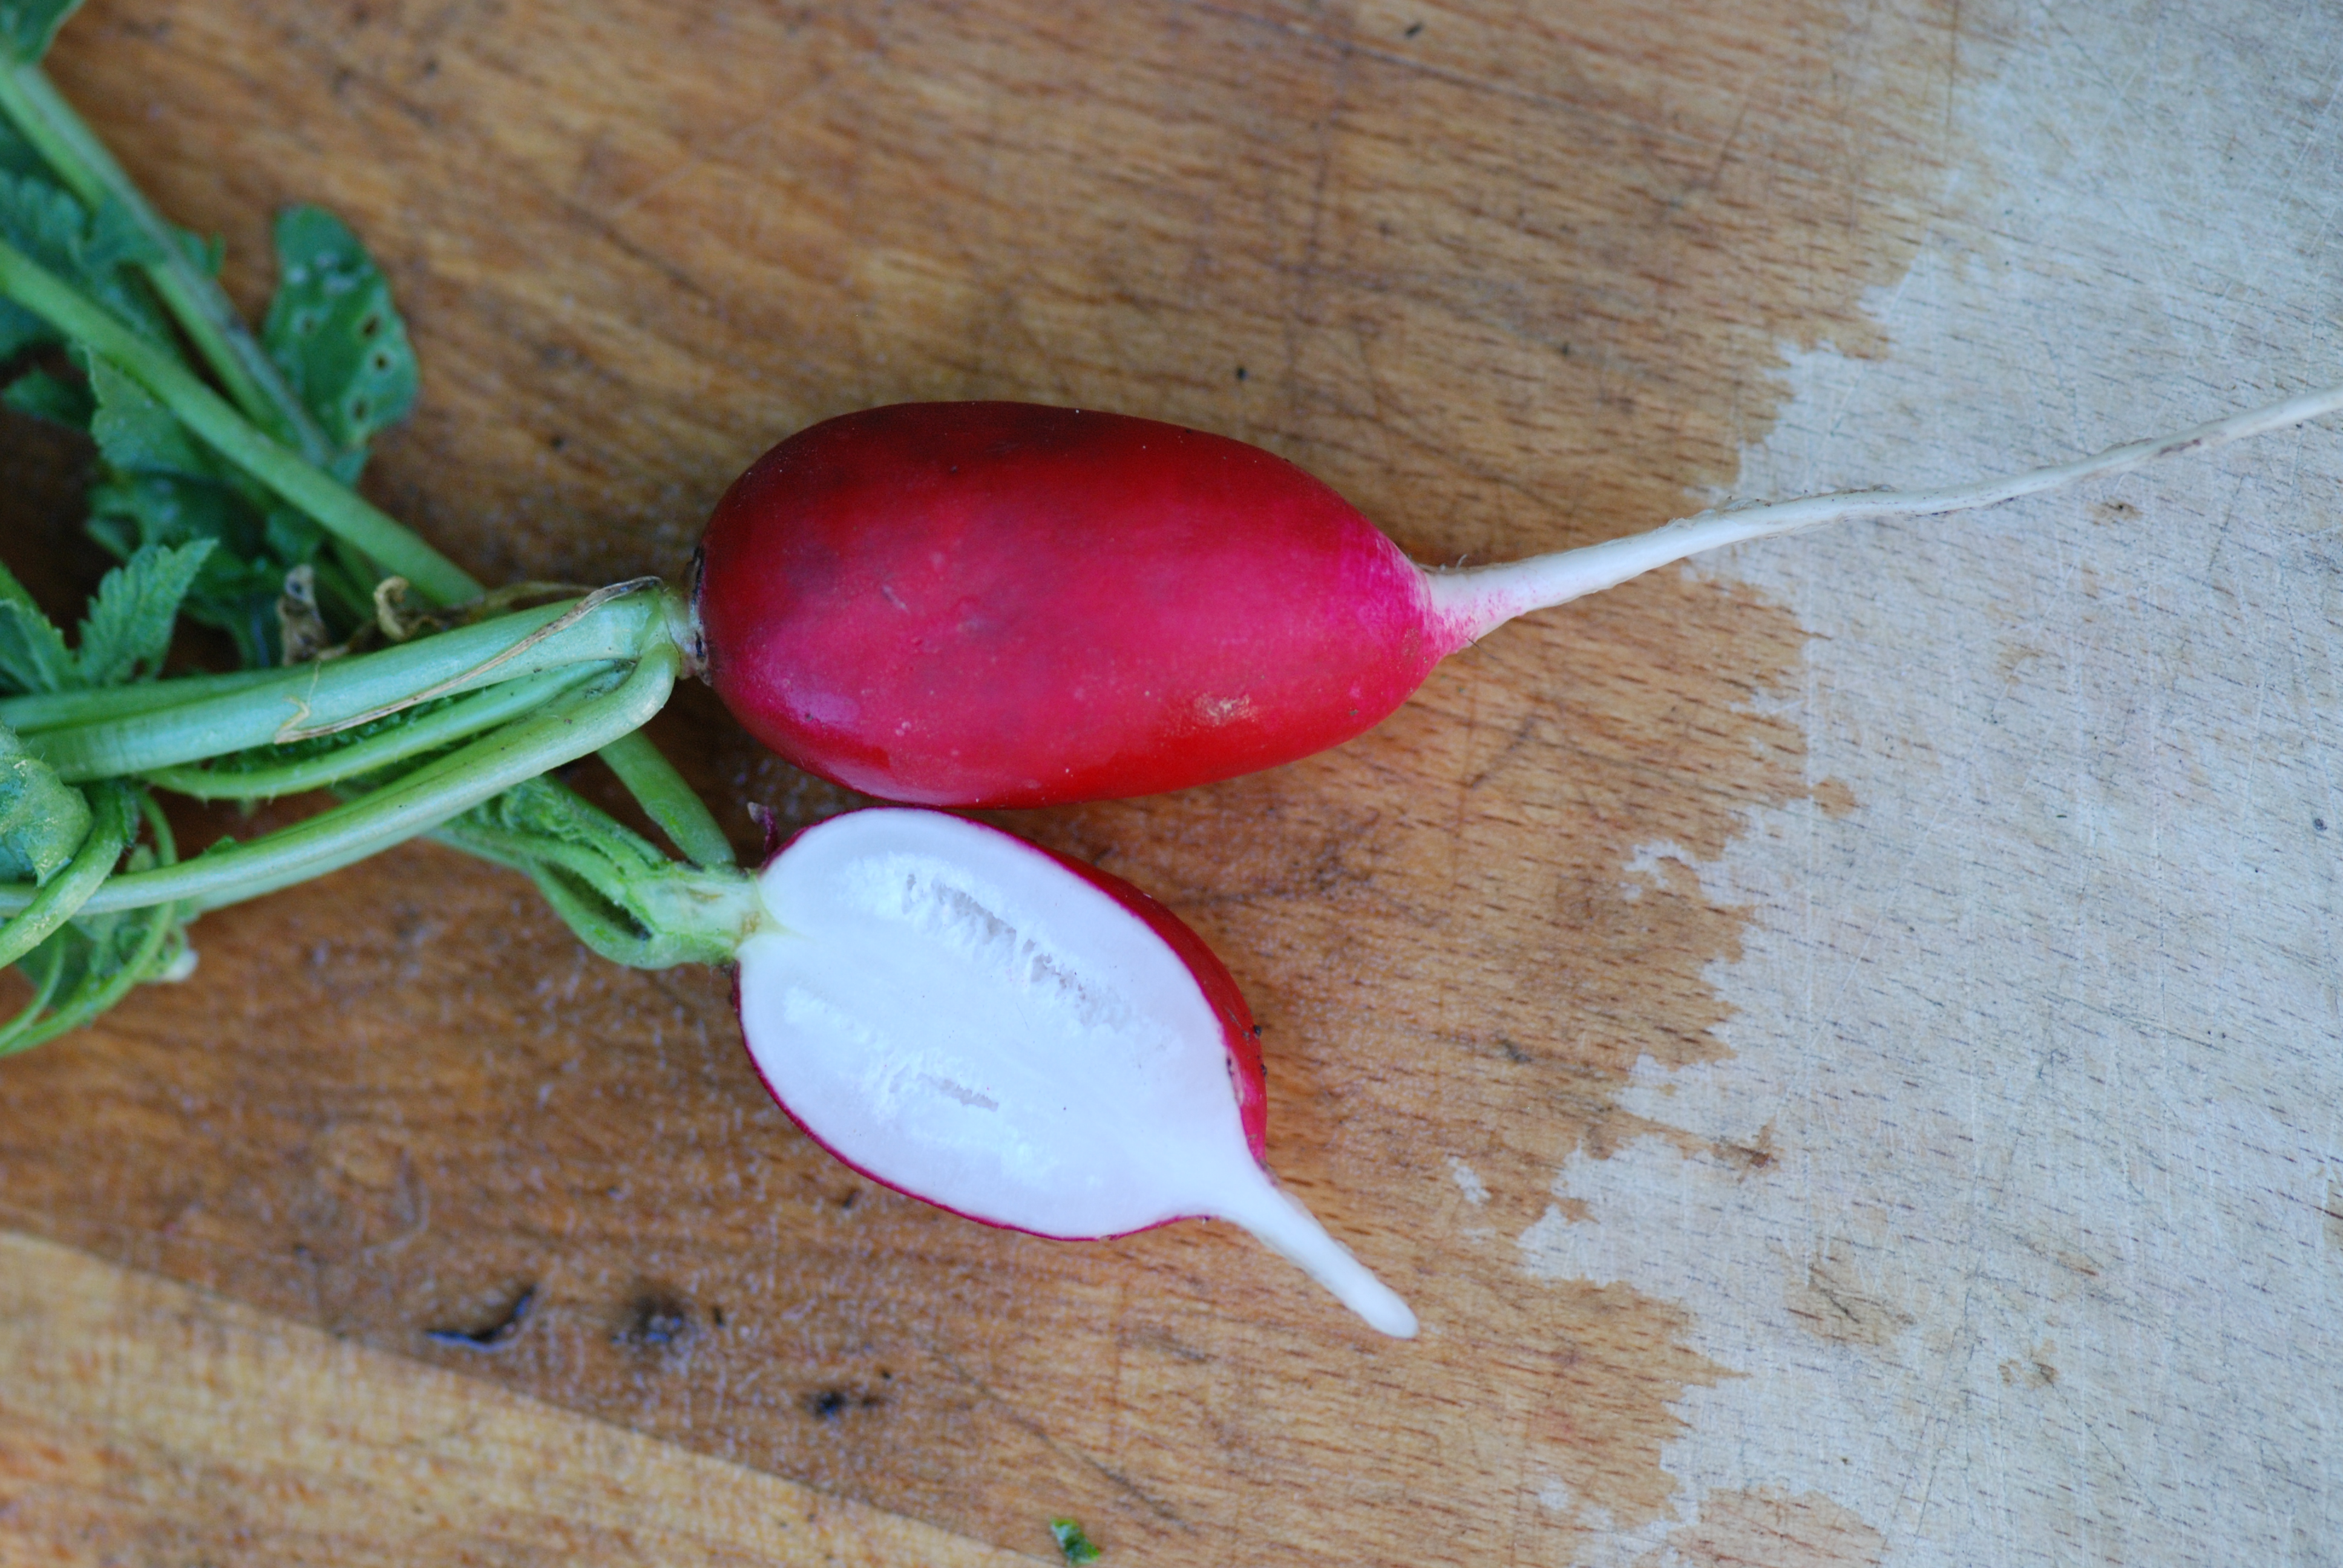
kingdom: Plantae
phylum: Tracheophyta
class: Magnoliopsida
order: Brassicales
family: Brassicaceae
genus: Raphanus
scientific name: Raphanus sativus
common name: Cultivated radish
